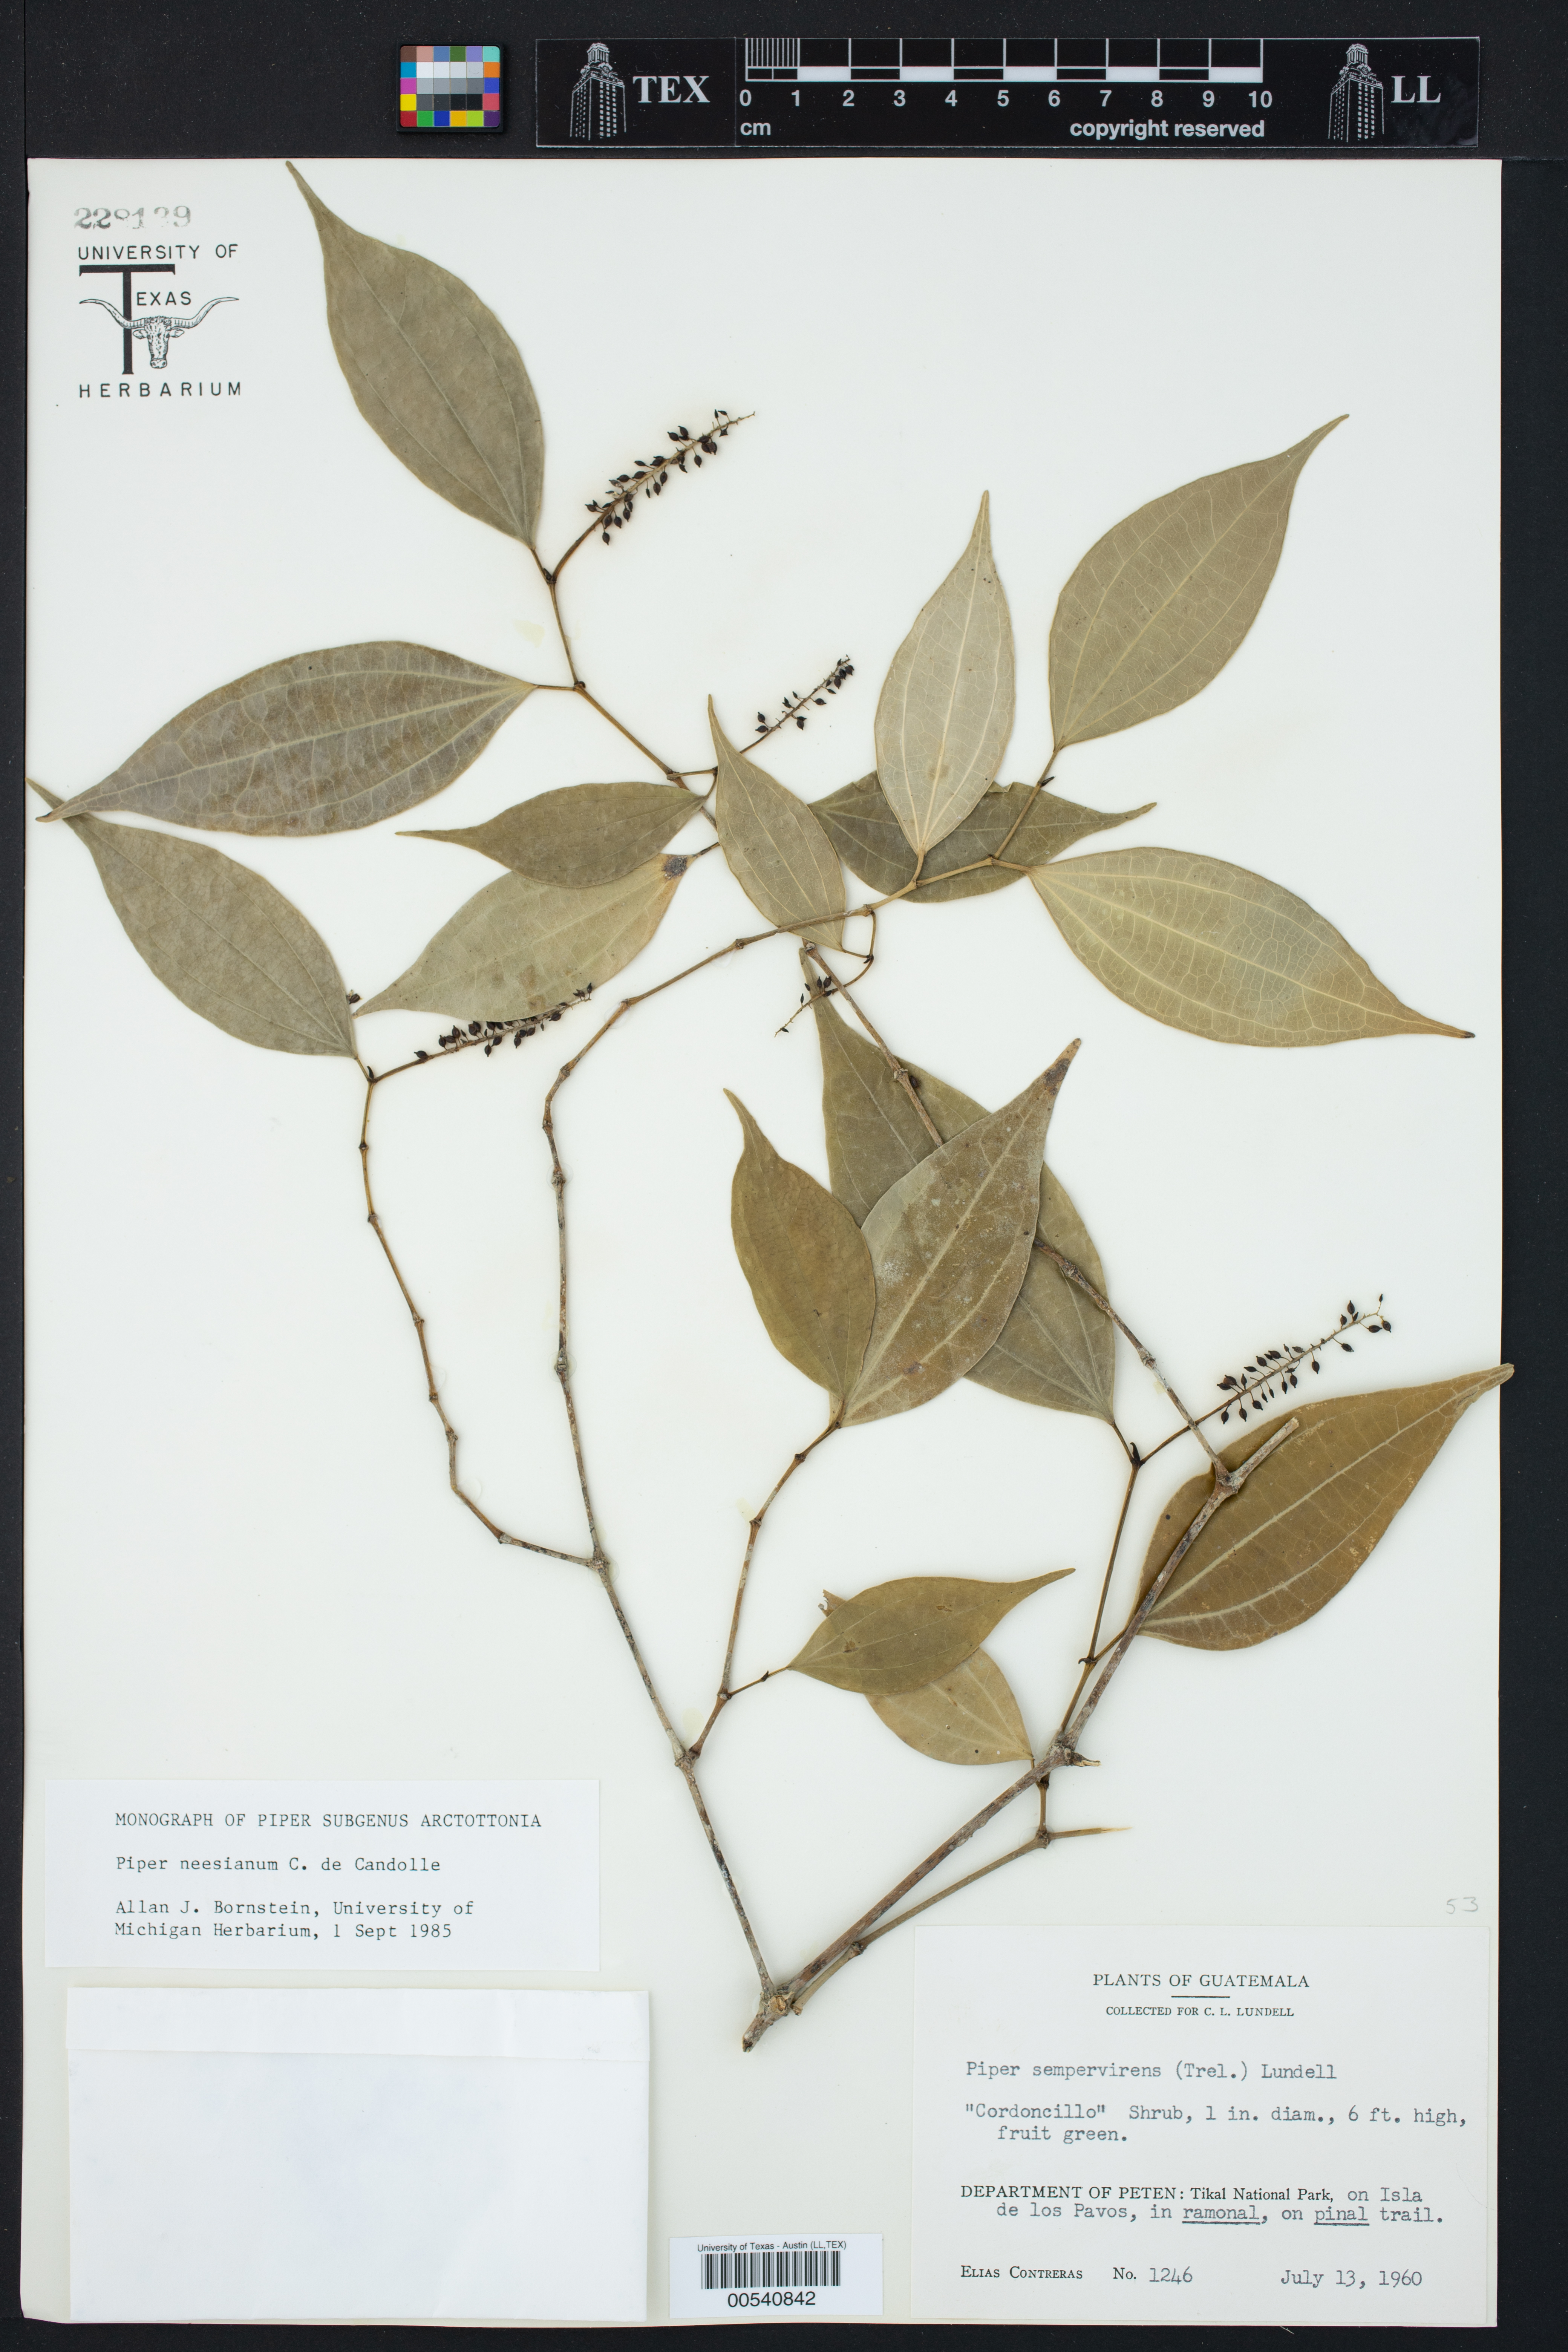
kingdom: Plantae
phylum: Tracheophyta
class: Magnoliopsida
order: Piperales
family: Piperaceae
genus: Piper
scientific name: Piper neesianum
